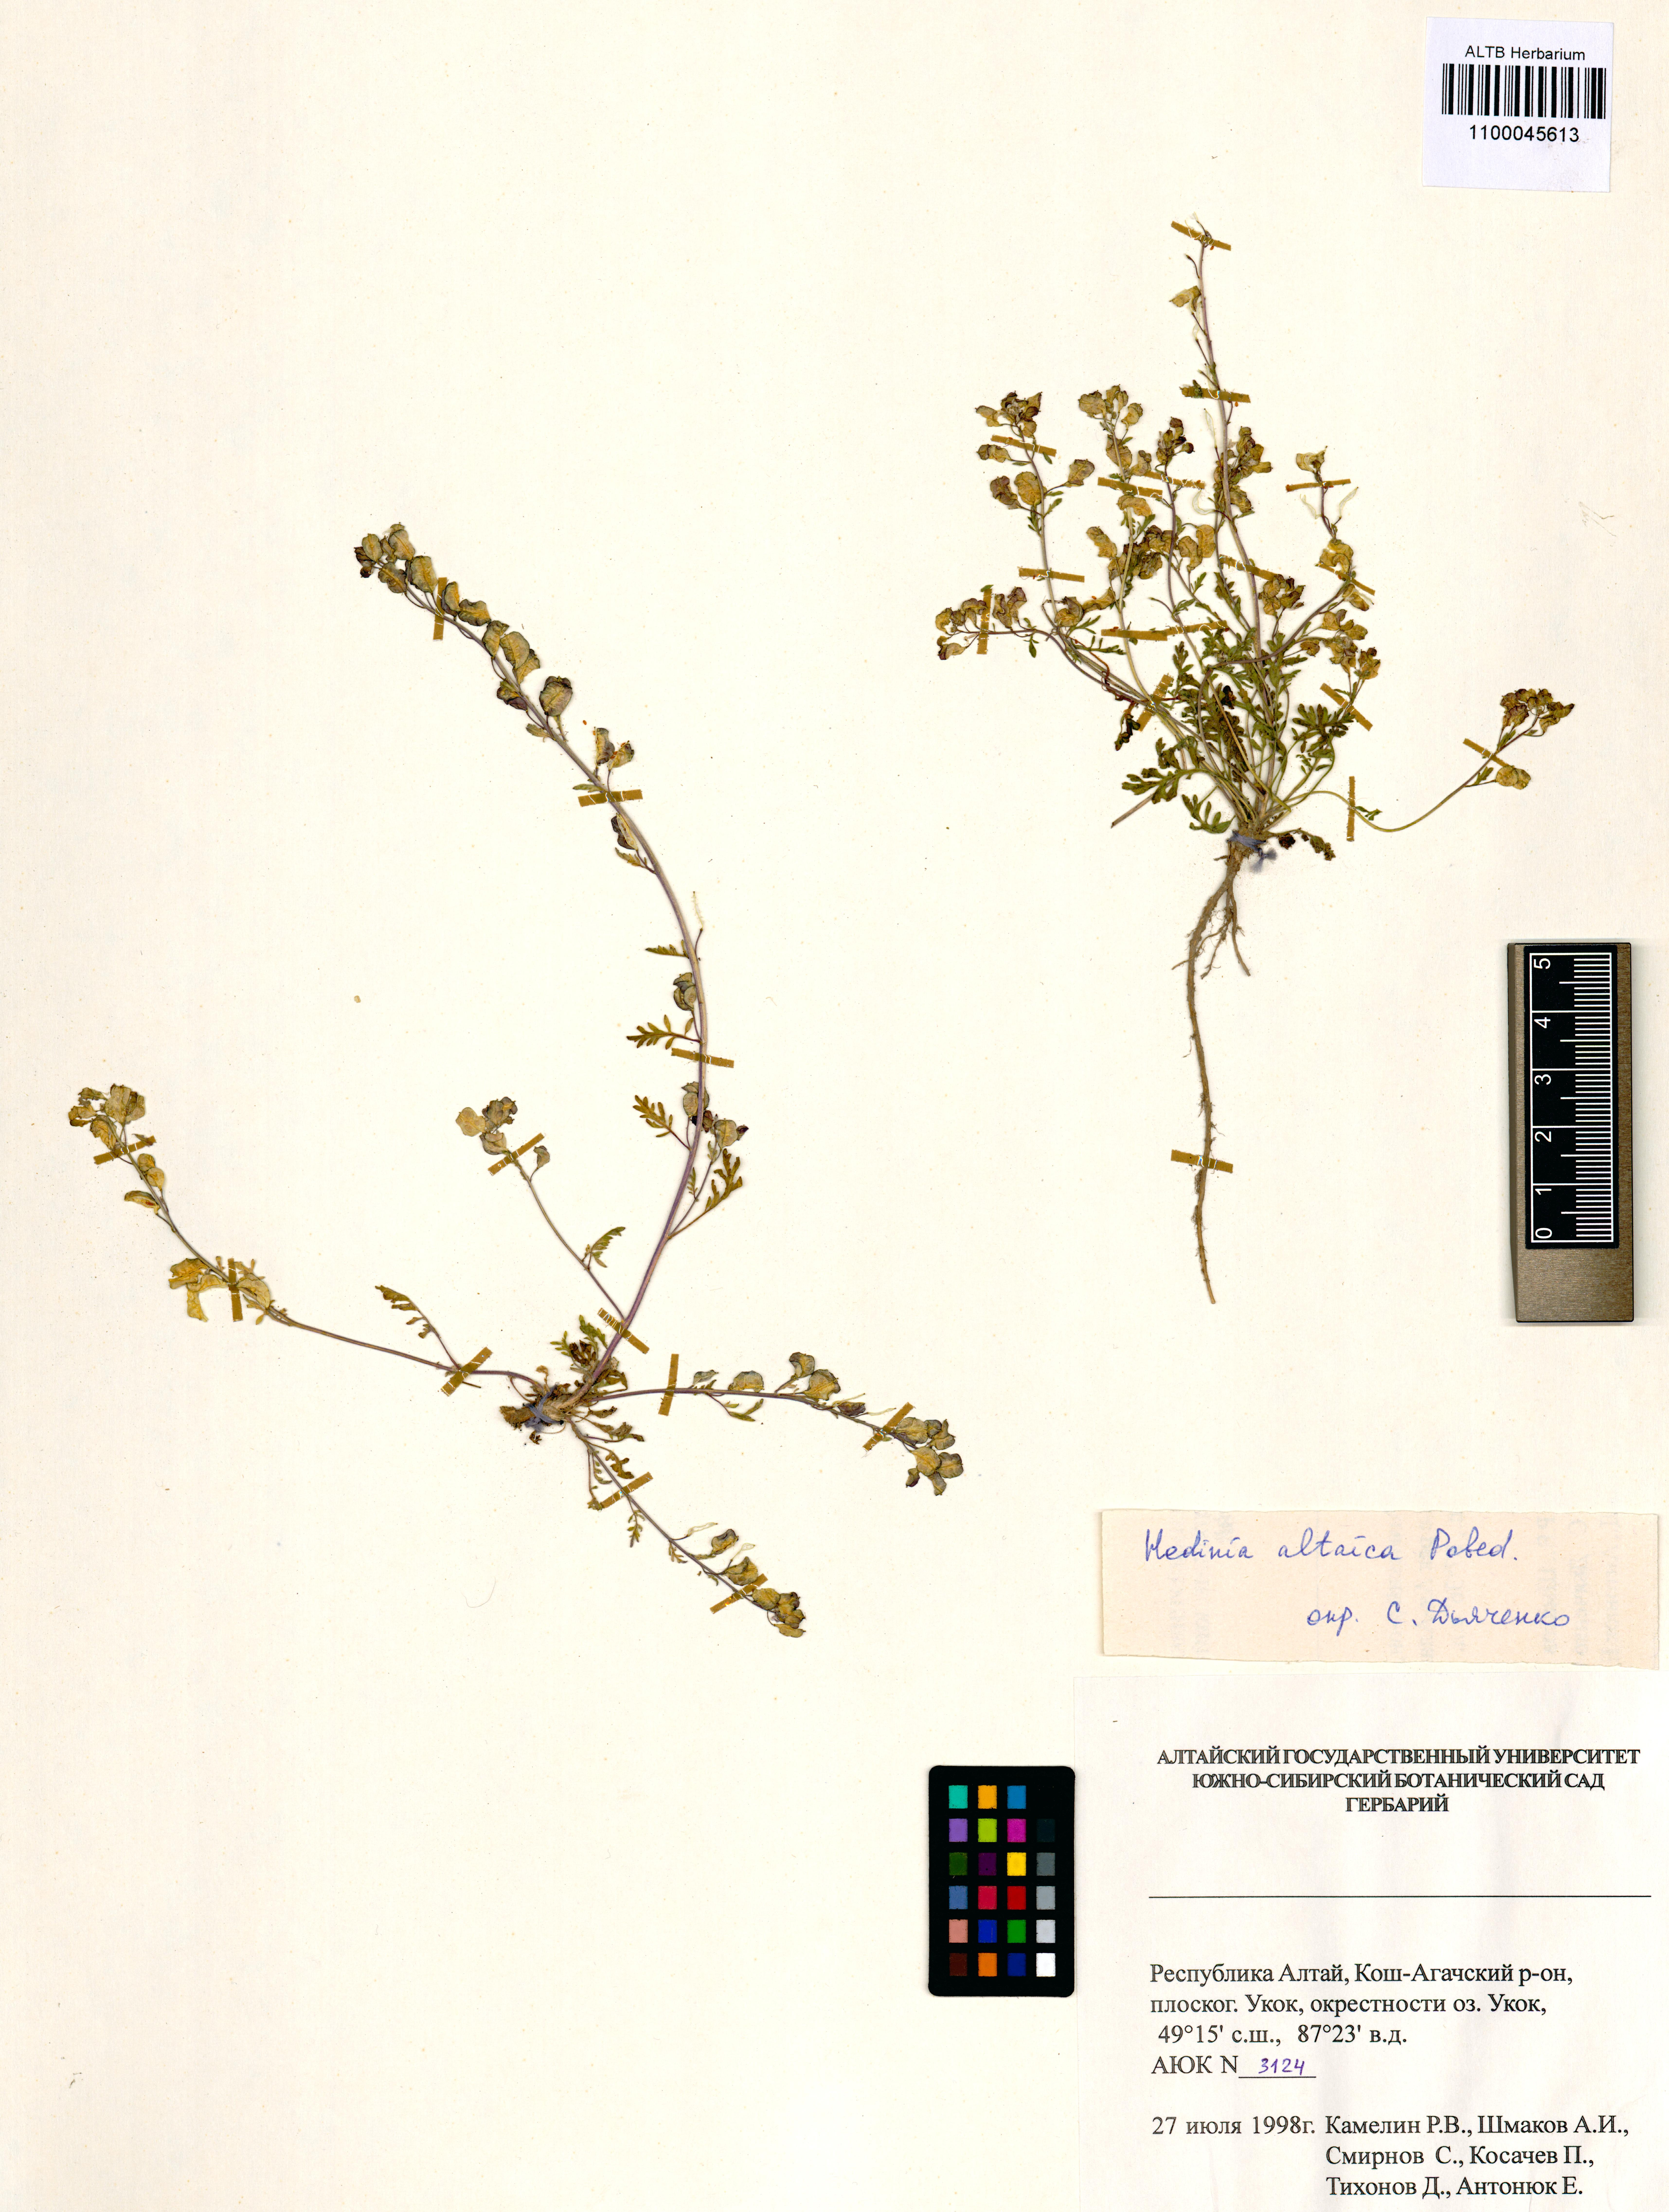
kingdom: Plantae
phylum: Tracheophyta
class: Magnoliopsida
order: Brassicales
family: Brassicaceae
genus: Smelowskia
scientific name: Smelowskia altaica
